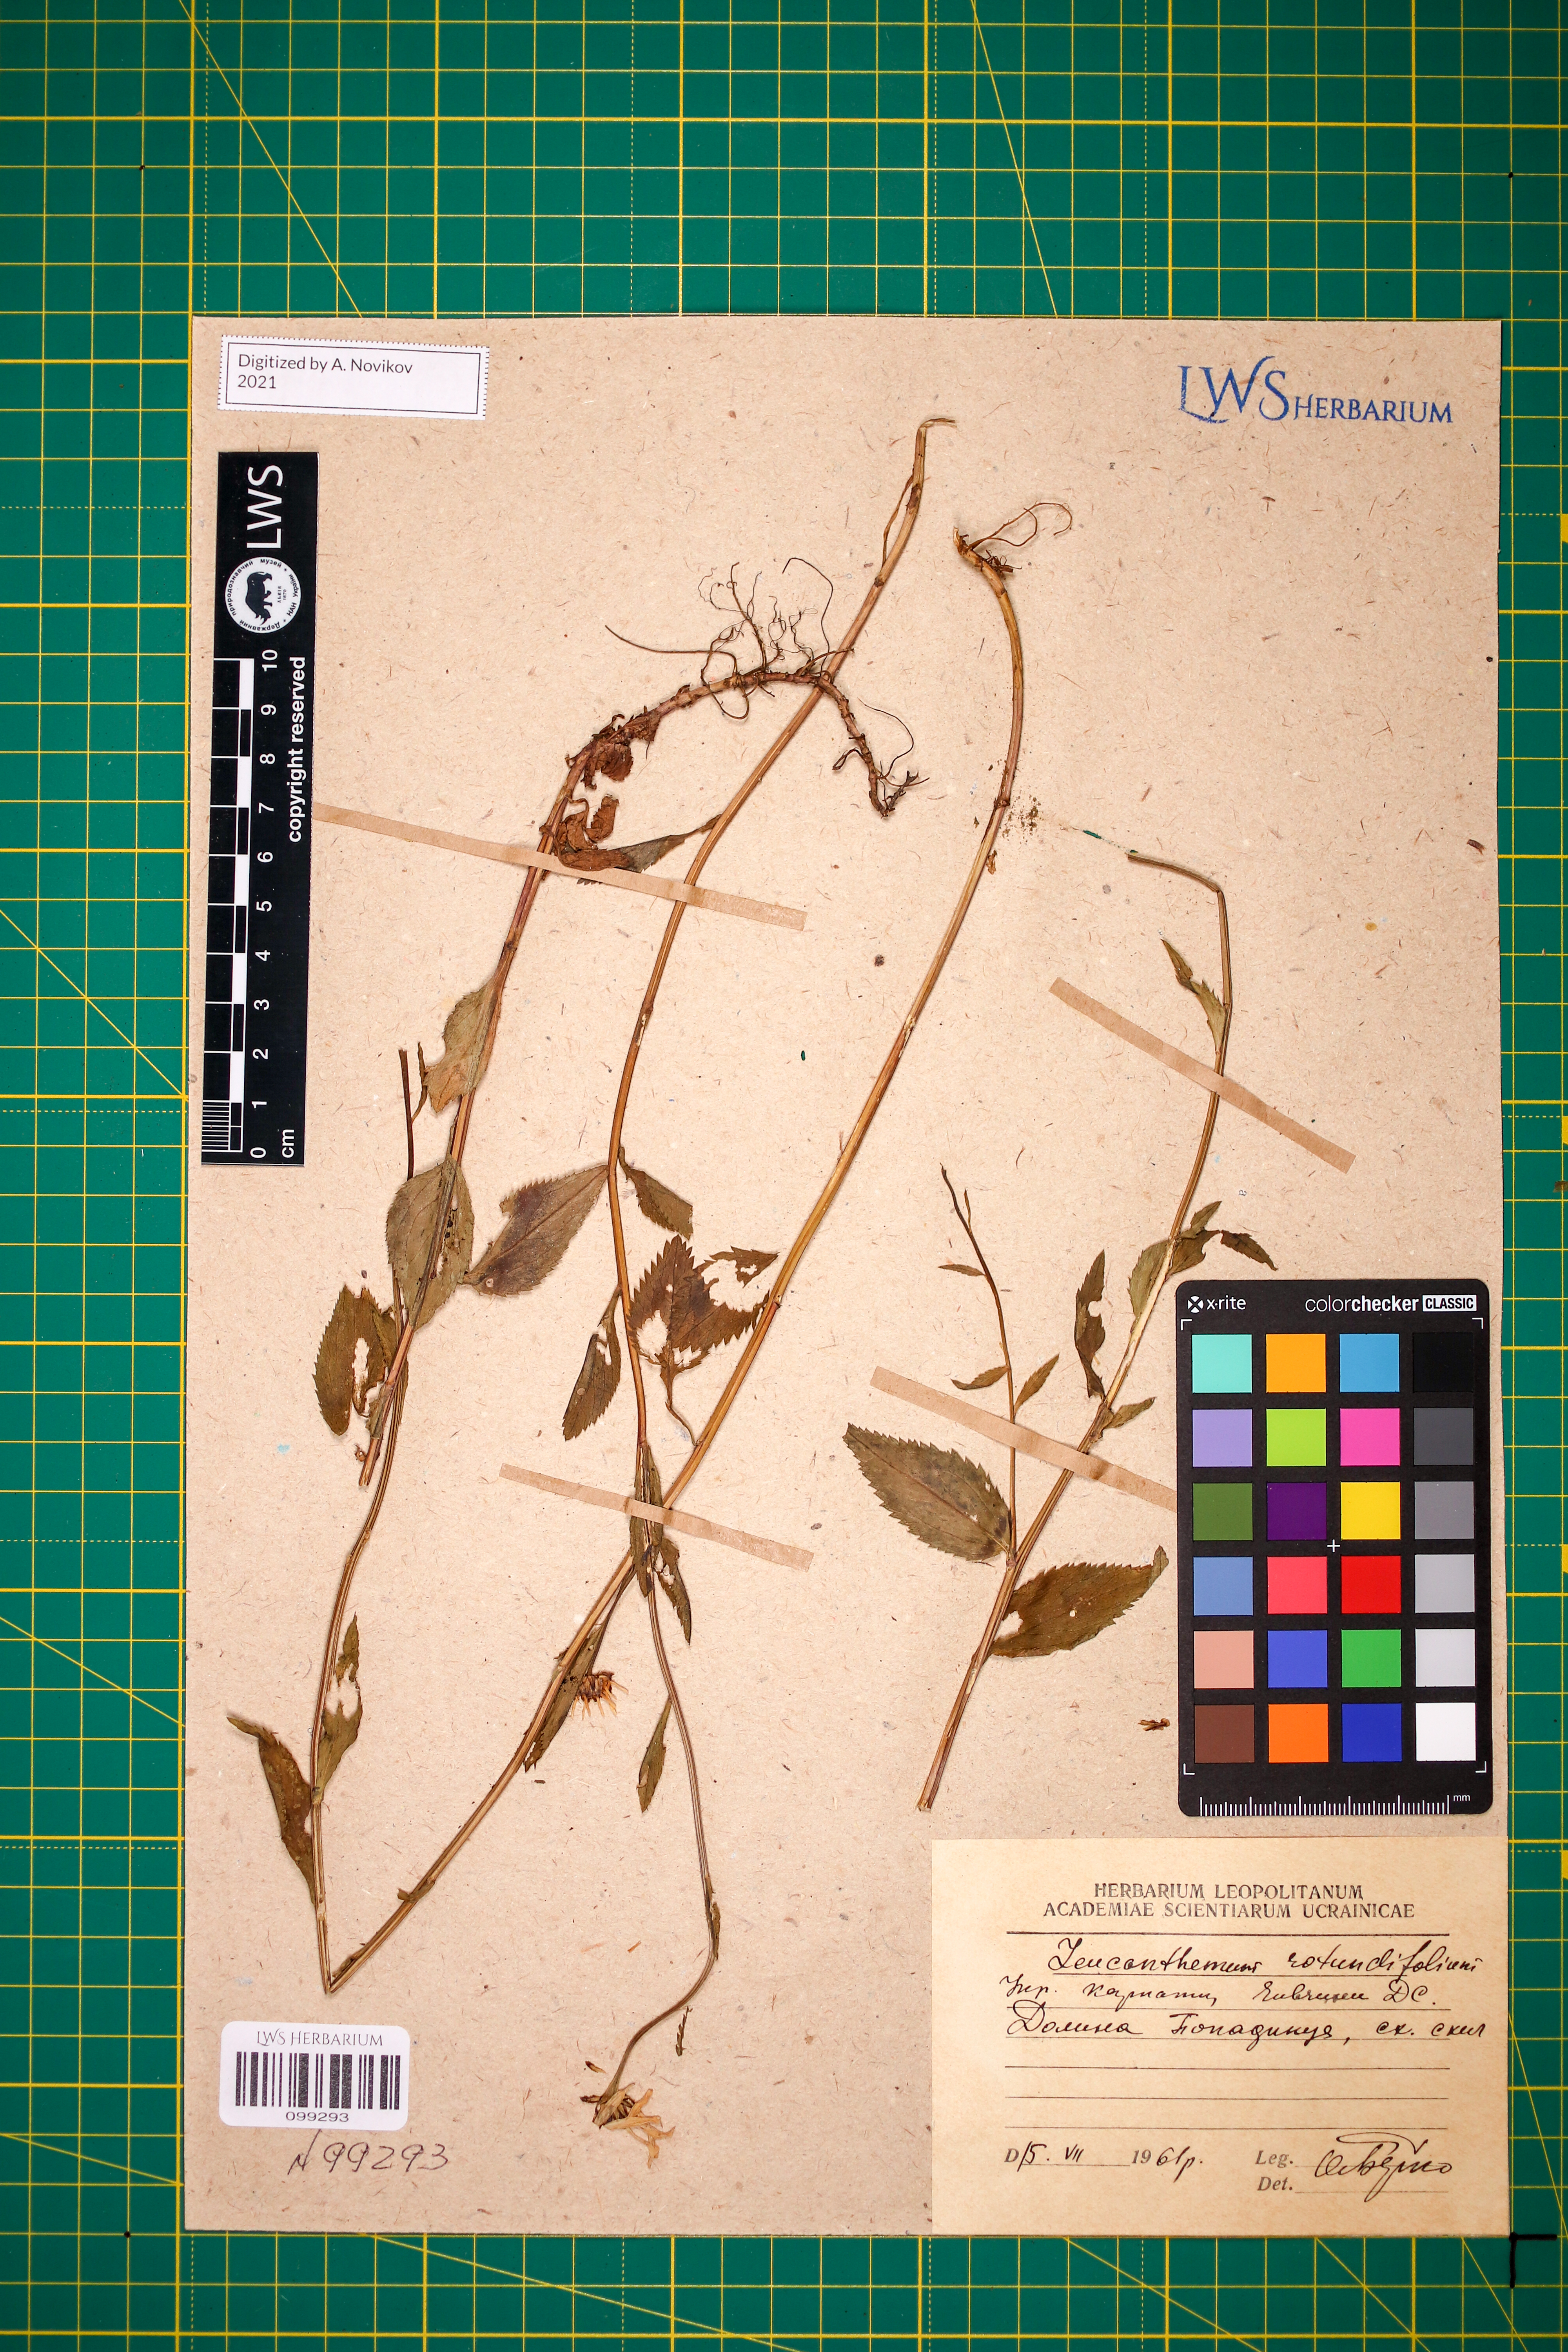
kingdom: Plantae
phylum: Tracheophyta
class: Magnoliopsida
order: Asterales
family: Asteraceae
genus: Leucanthemum
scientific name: Leucanthemum rotundifolium
